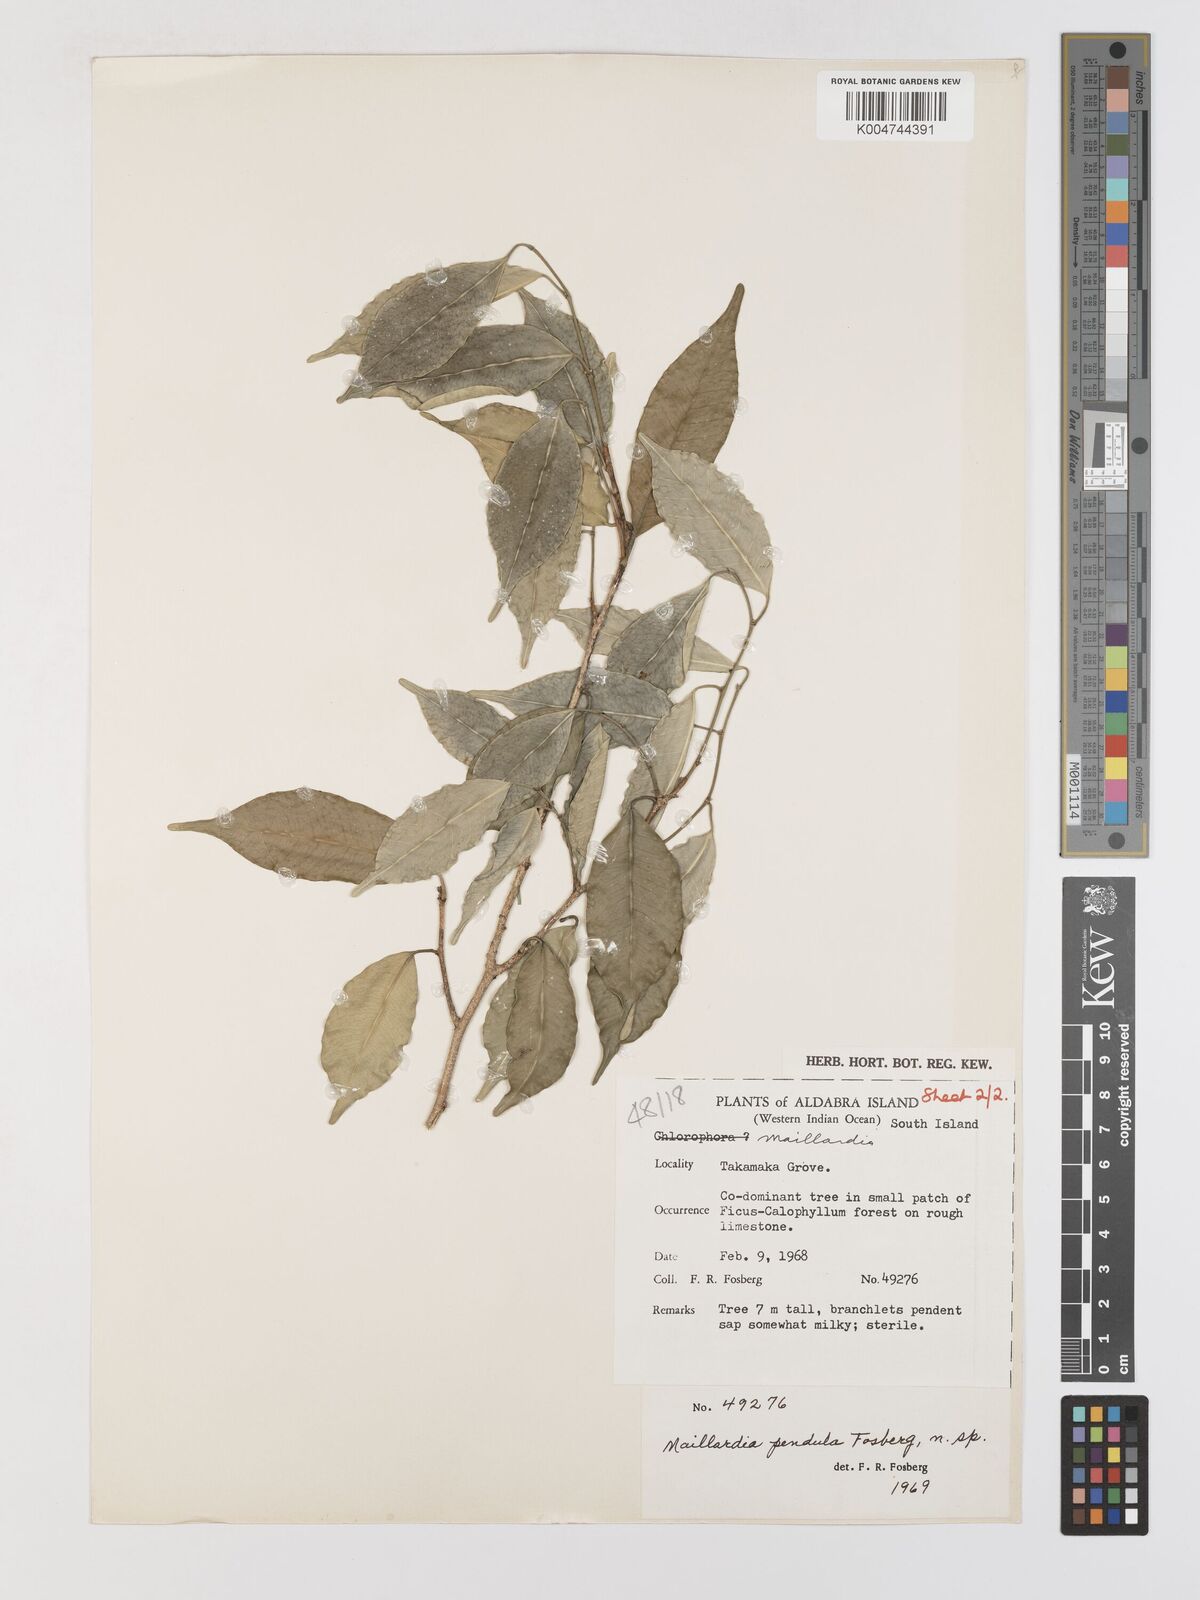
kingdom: Plantae
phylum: Tracheophyta
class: Magnoliopsida
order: Rosales
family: Moraceae
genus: Maillardia
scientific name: Maillardia montana
